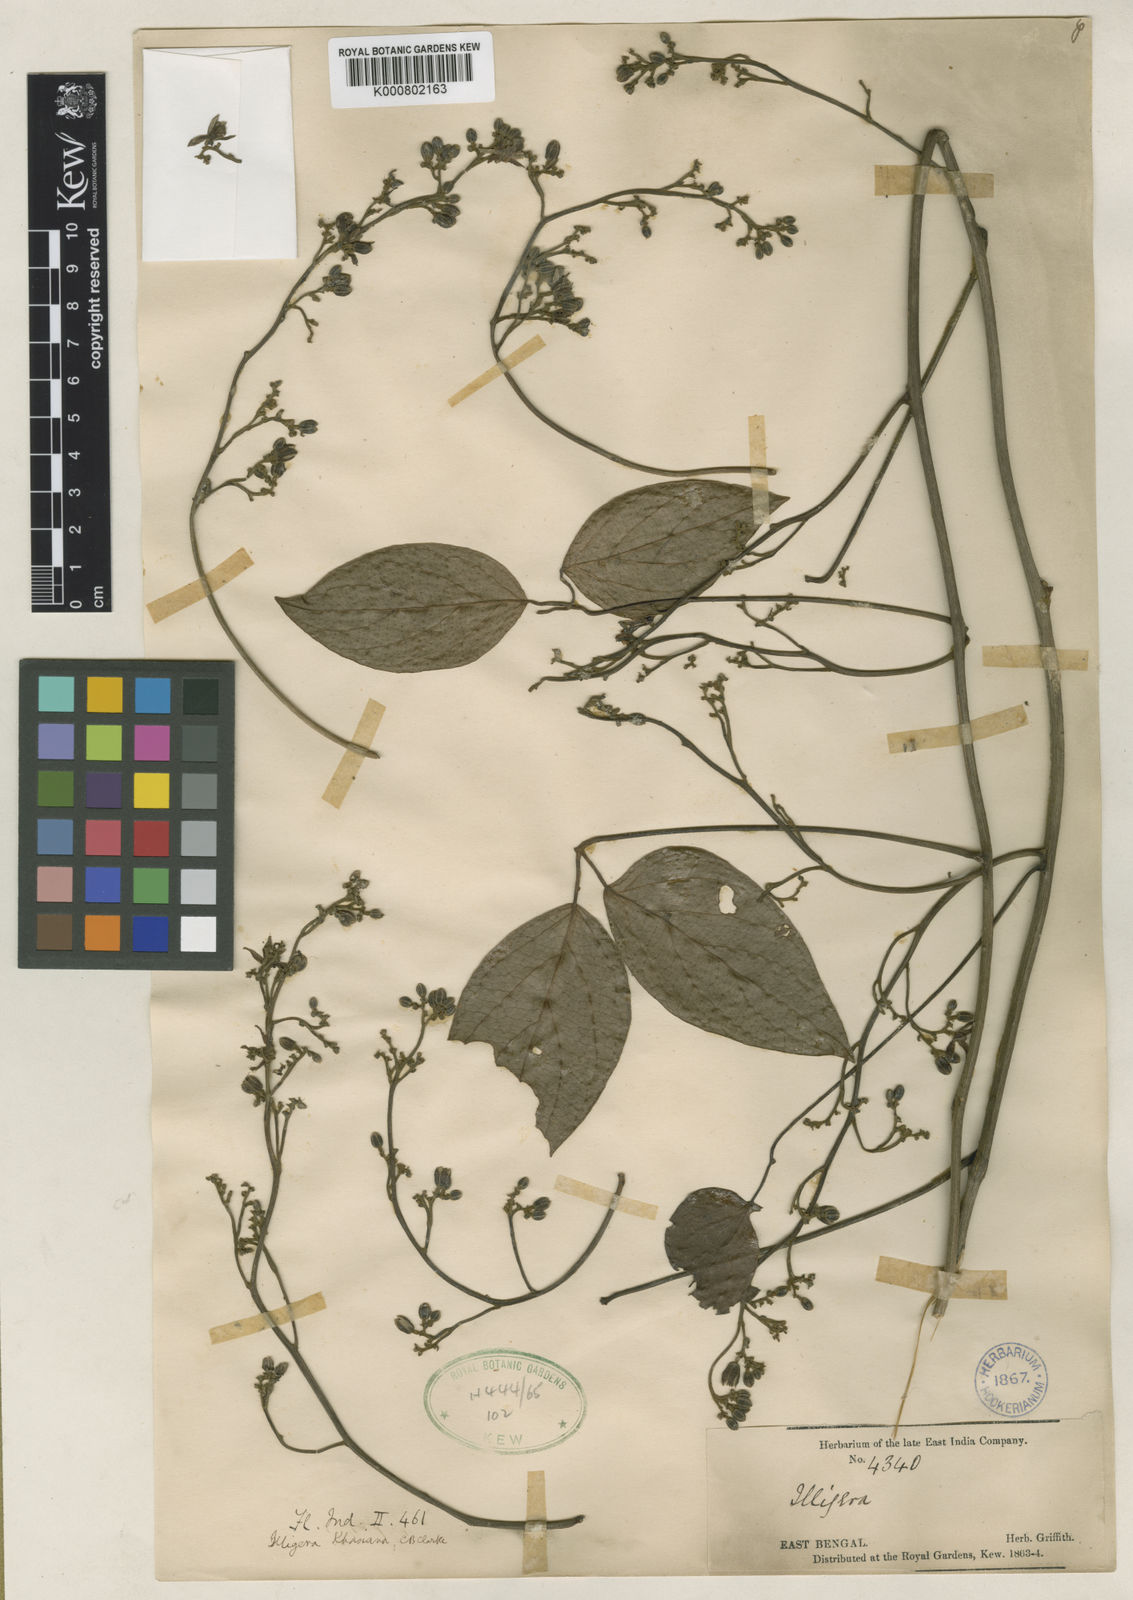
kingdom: Plantae
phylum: Tracheophyta
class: Magnoliopsida
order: Laurales
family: Hernandiaceae
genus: Illigera
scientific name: Illigera khasiana
